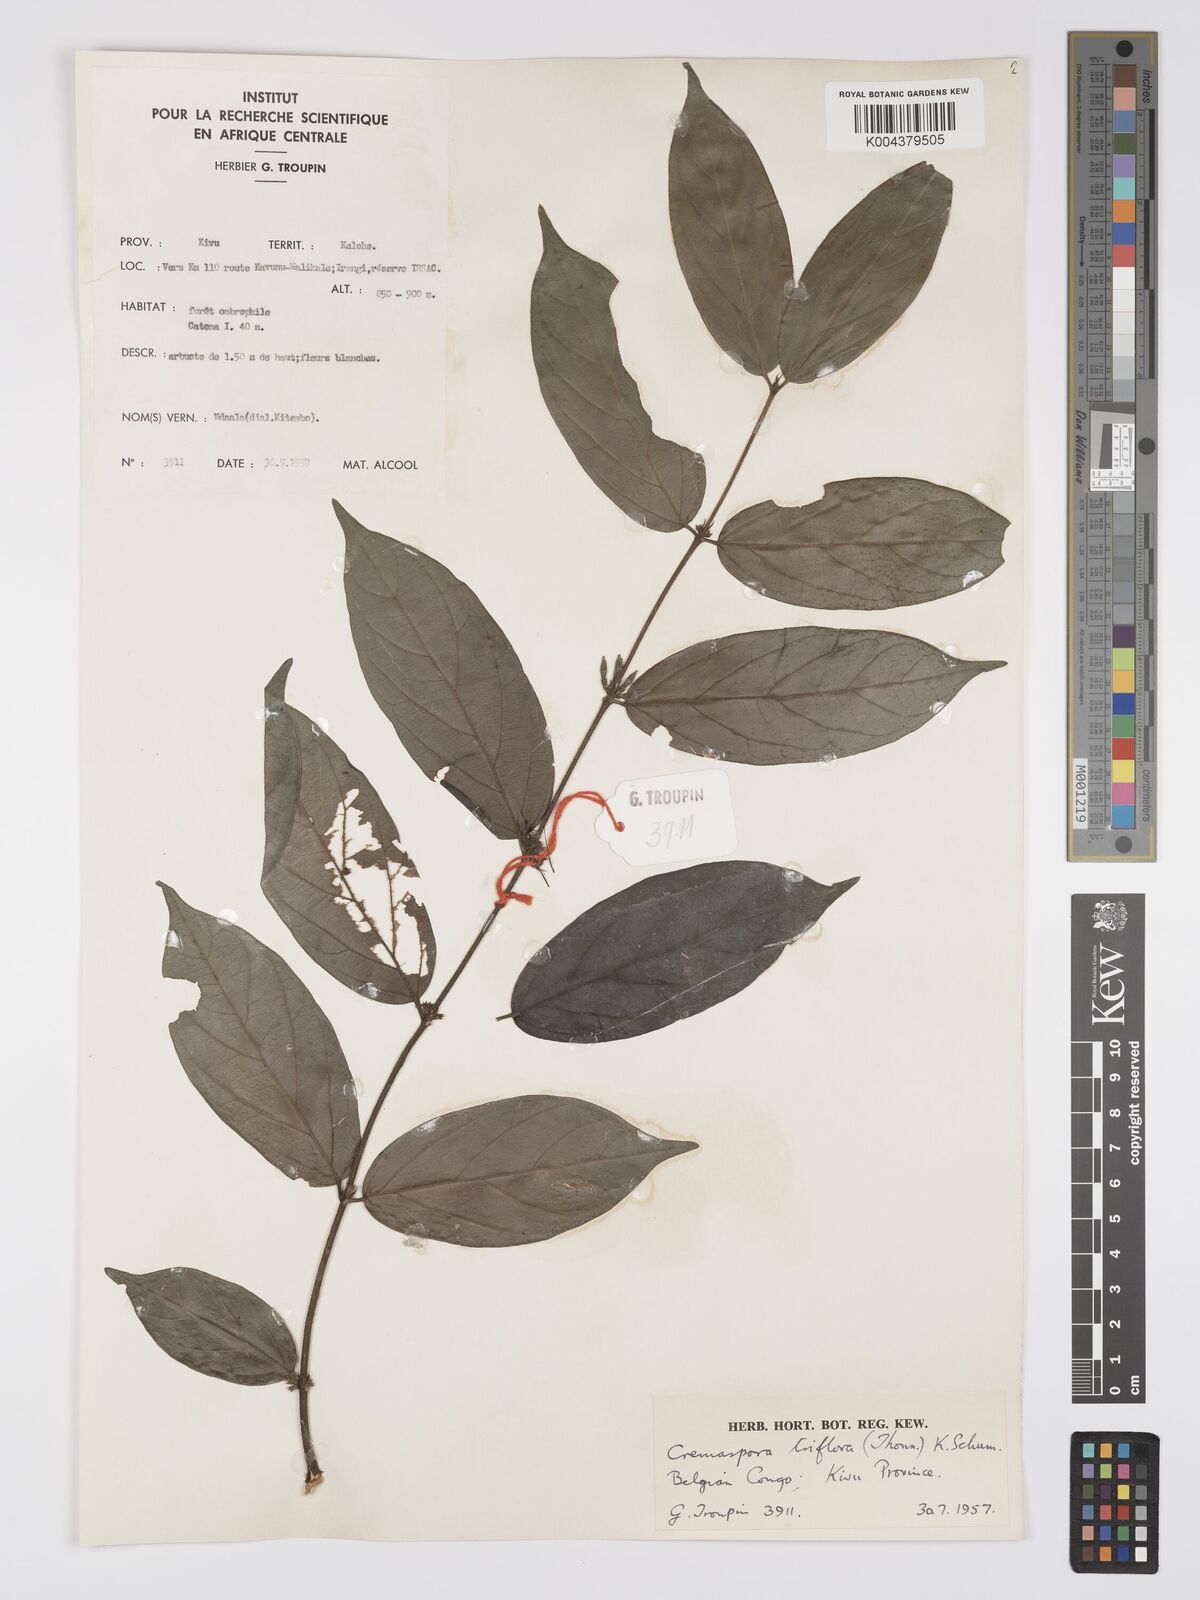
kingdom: Plantae
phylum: Tracheophyta
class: Magnoliopsida
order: Gentianales
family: Rubiaceae
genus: Cremaspora
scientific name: Cremaspora triflora
